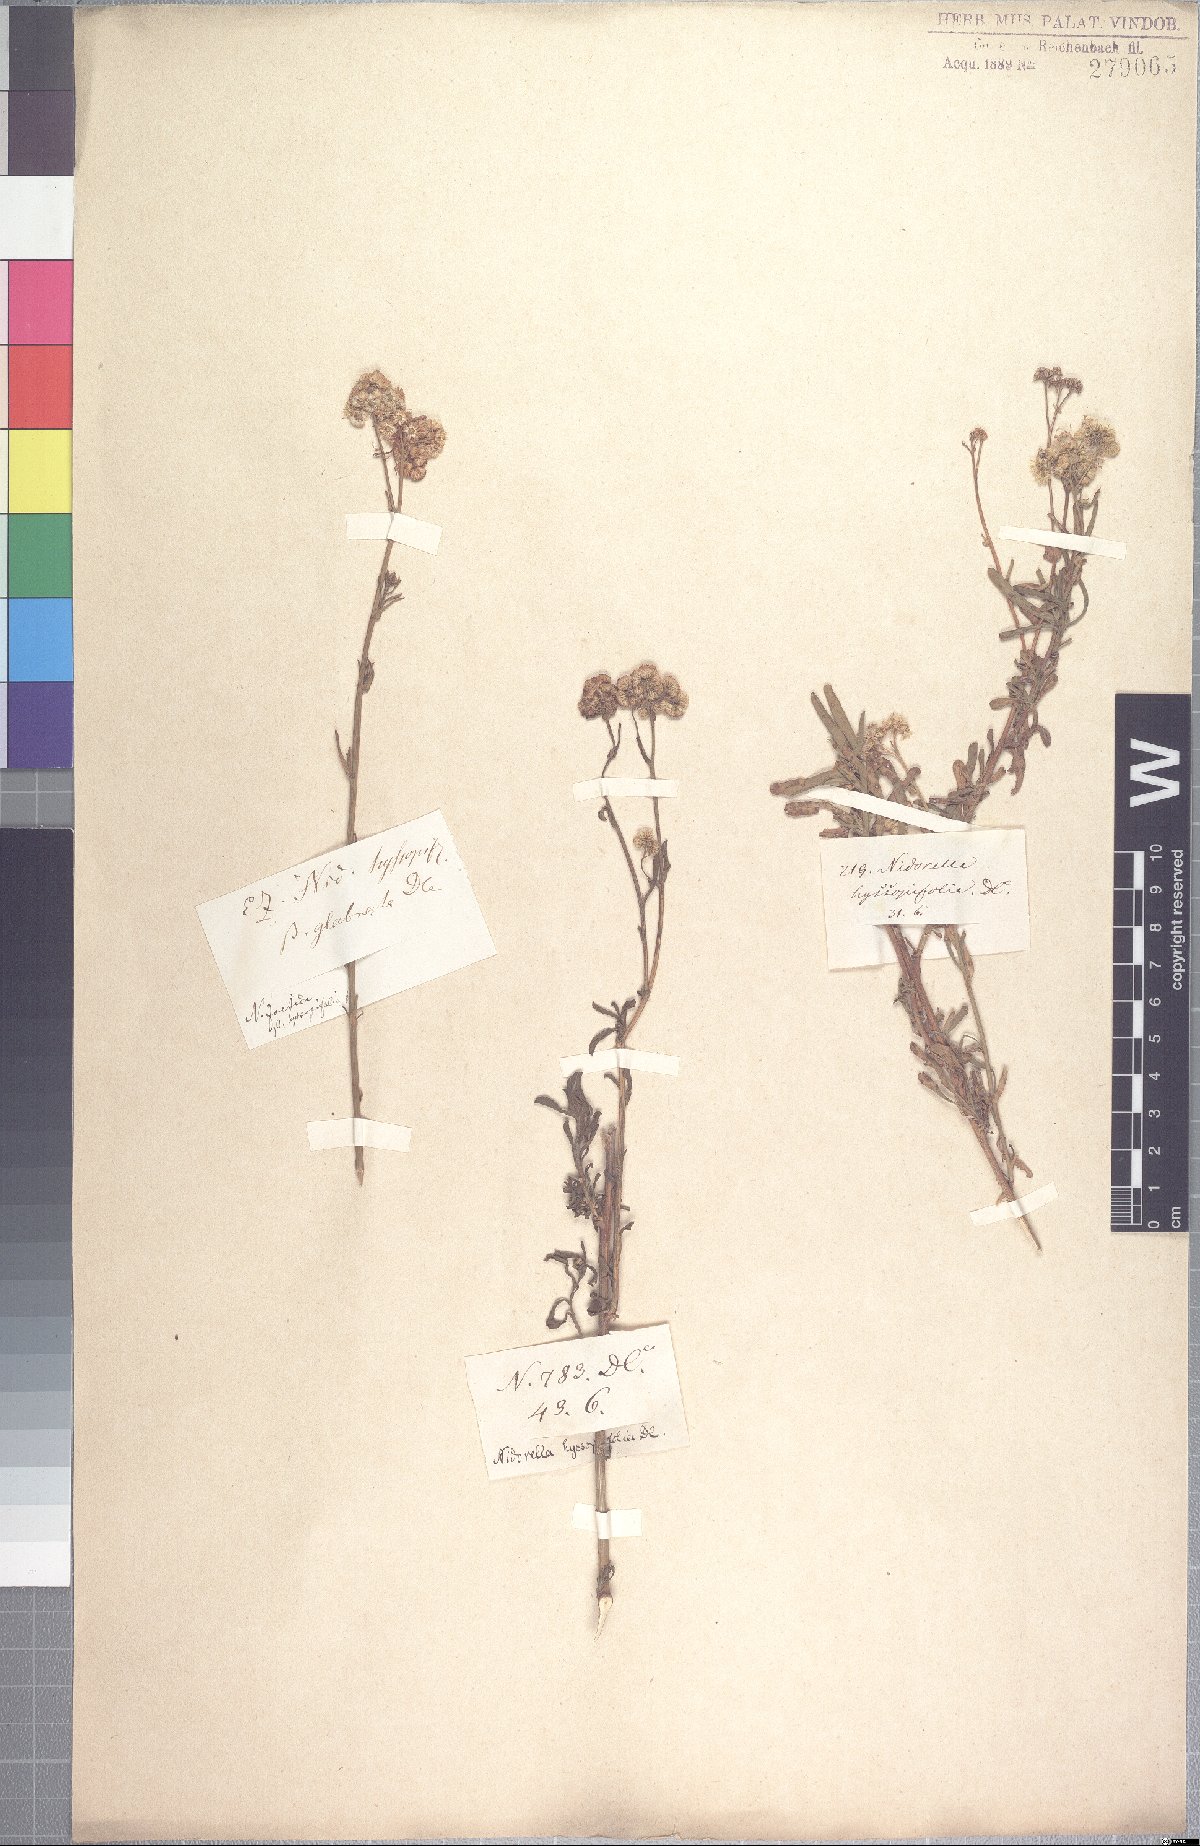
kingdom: Plantae
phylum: Tracheophyta
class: Magnoliopsida
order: Asterales
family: Asteraceae
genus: Nidorella
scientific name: Nidorella foetida
